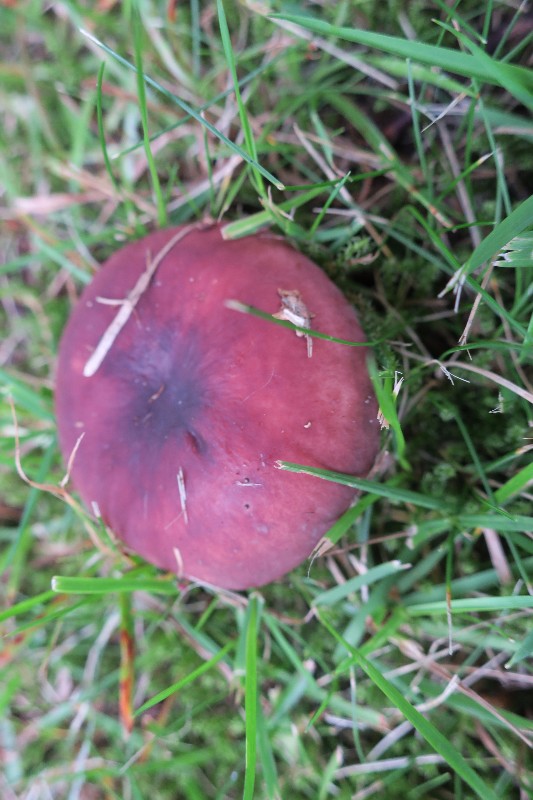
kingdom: Fungi
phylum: Basidiomycota
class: Agaricomycetes
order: Russulales
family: Russulaceae
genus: Russula
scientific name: Russula vesca
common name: spiselig skørhat
